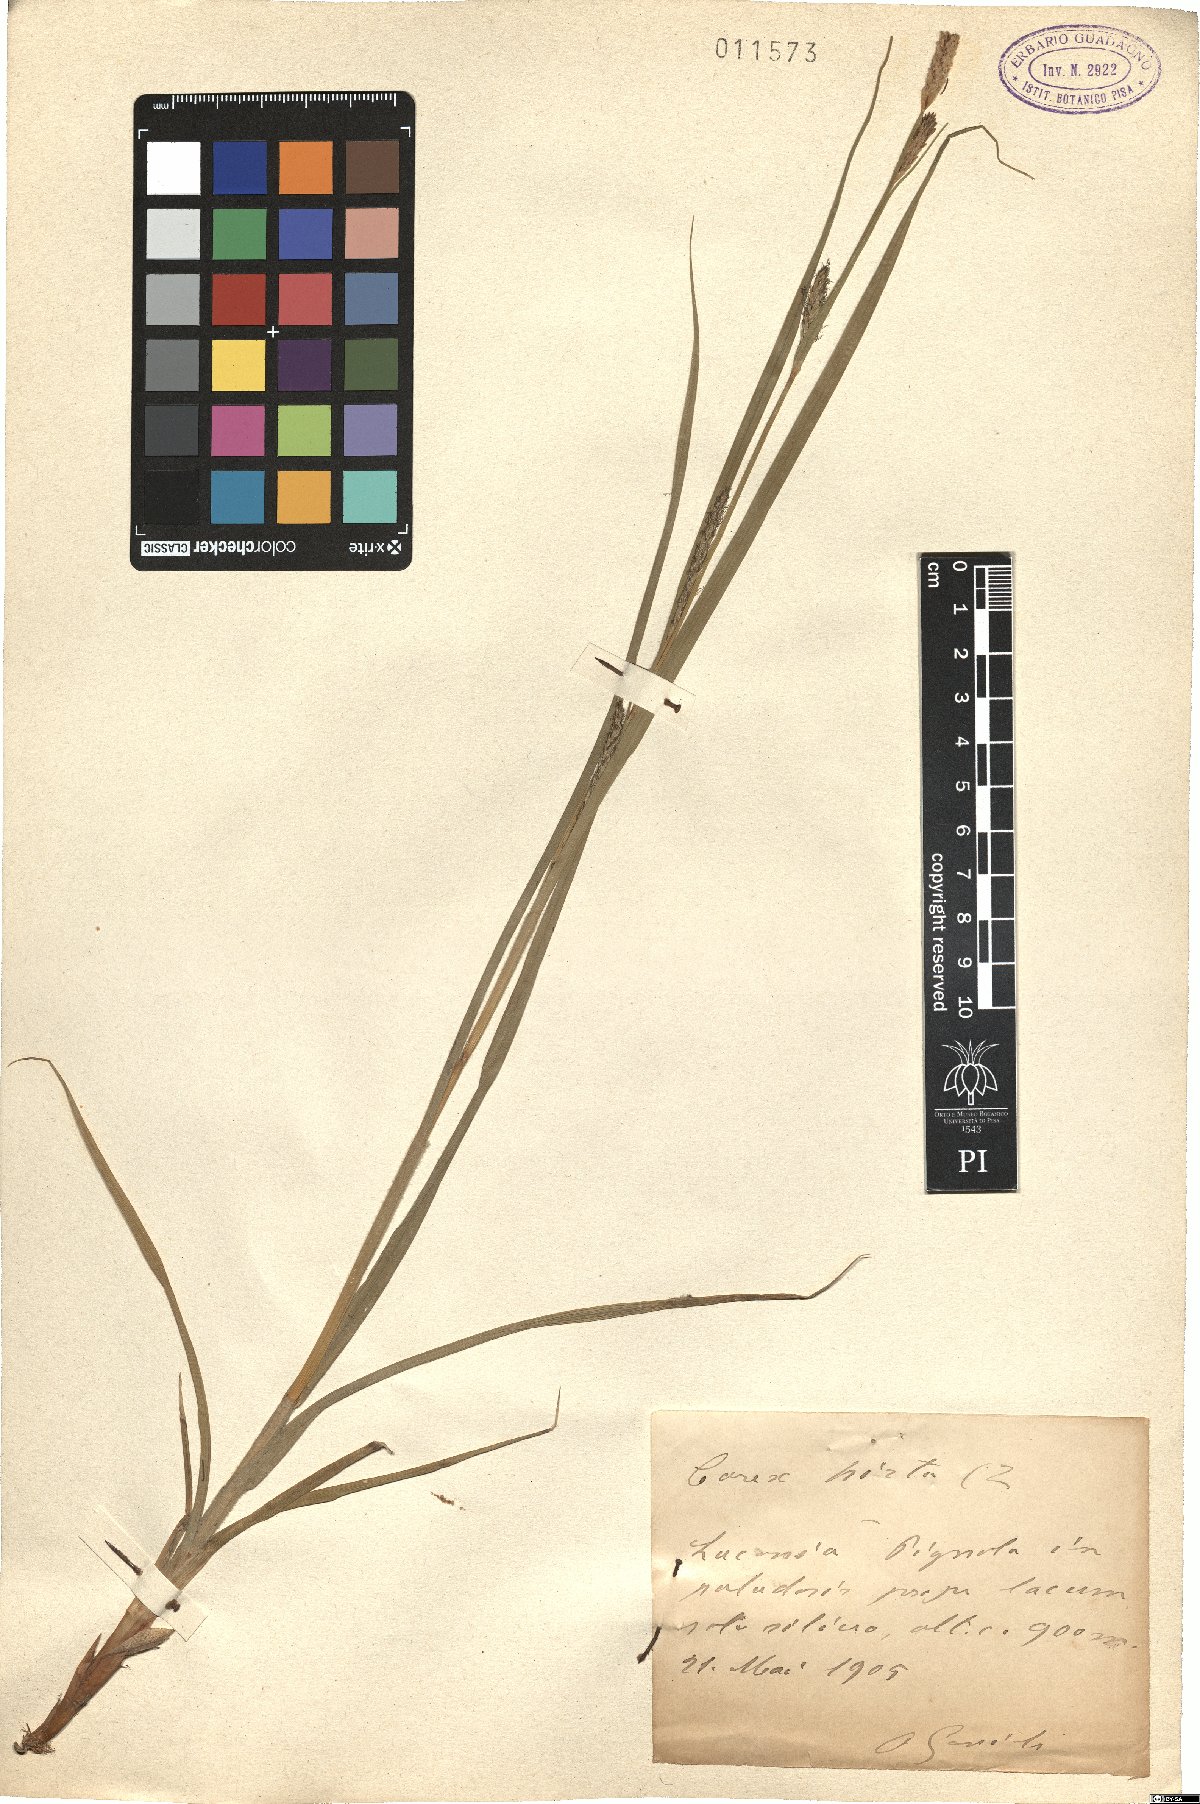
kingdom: Plantae
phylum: Tracheophyta
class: Liliopsida
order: Poales
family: Cyperaceae
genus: Carex
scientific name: Carex hirta
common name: Hairy sedge
